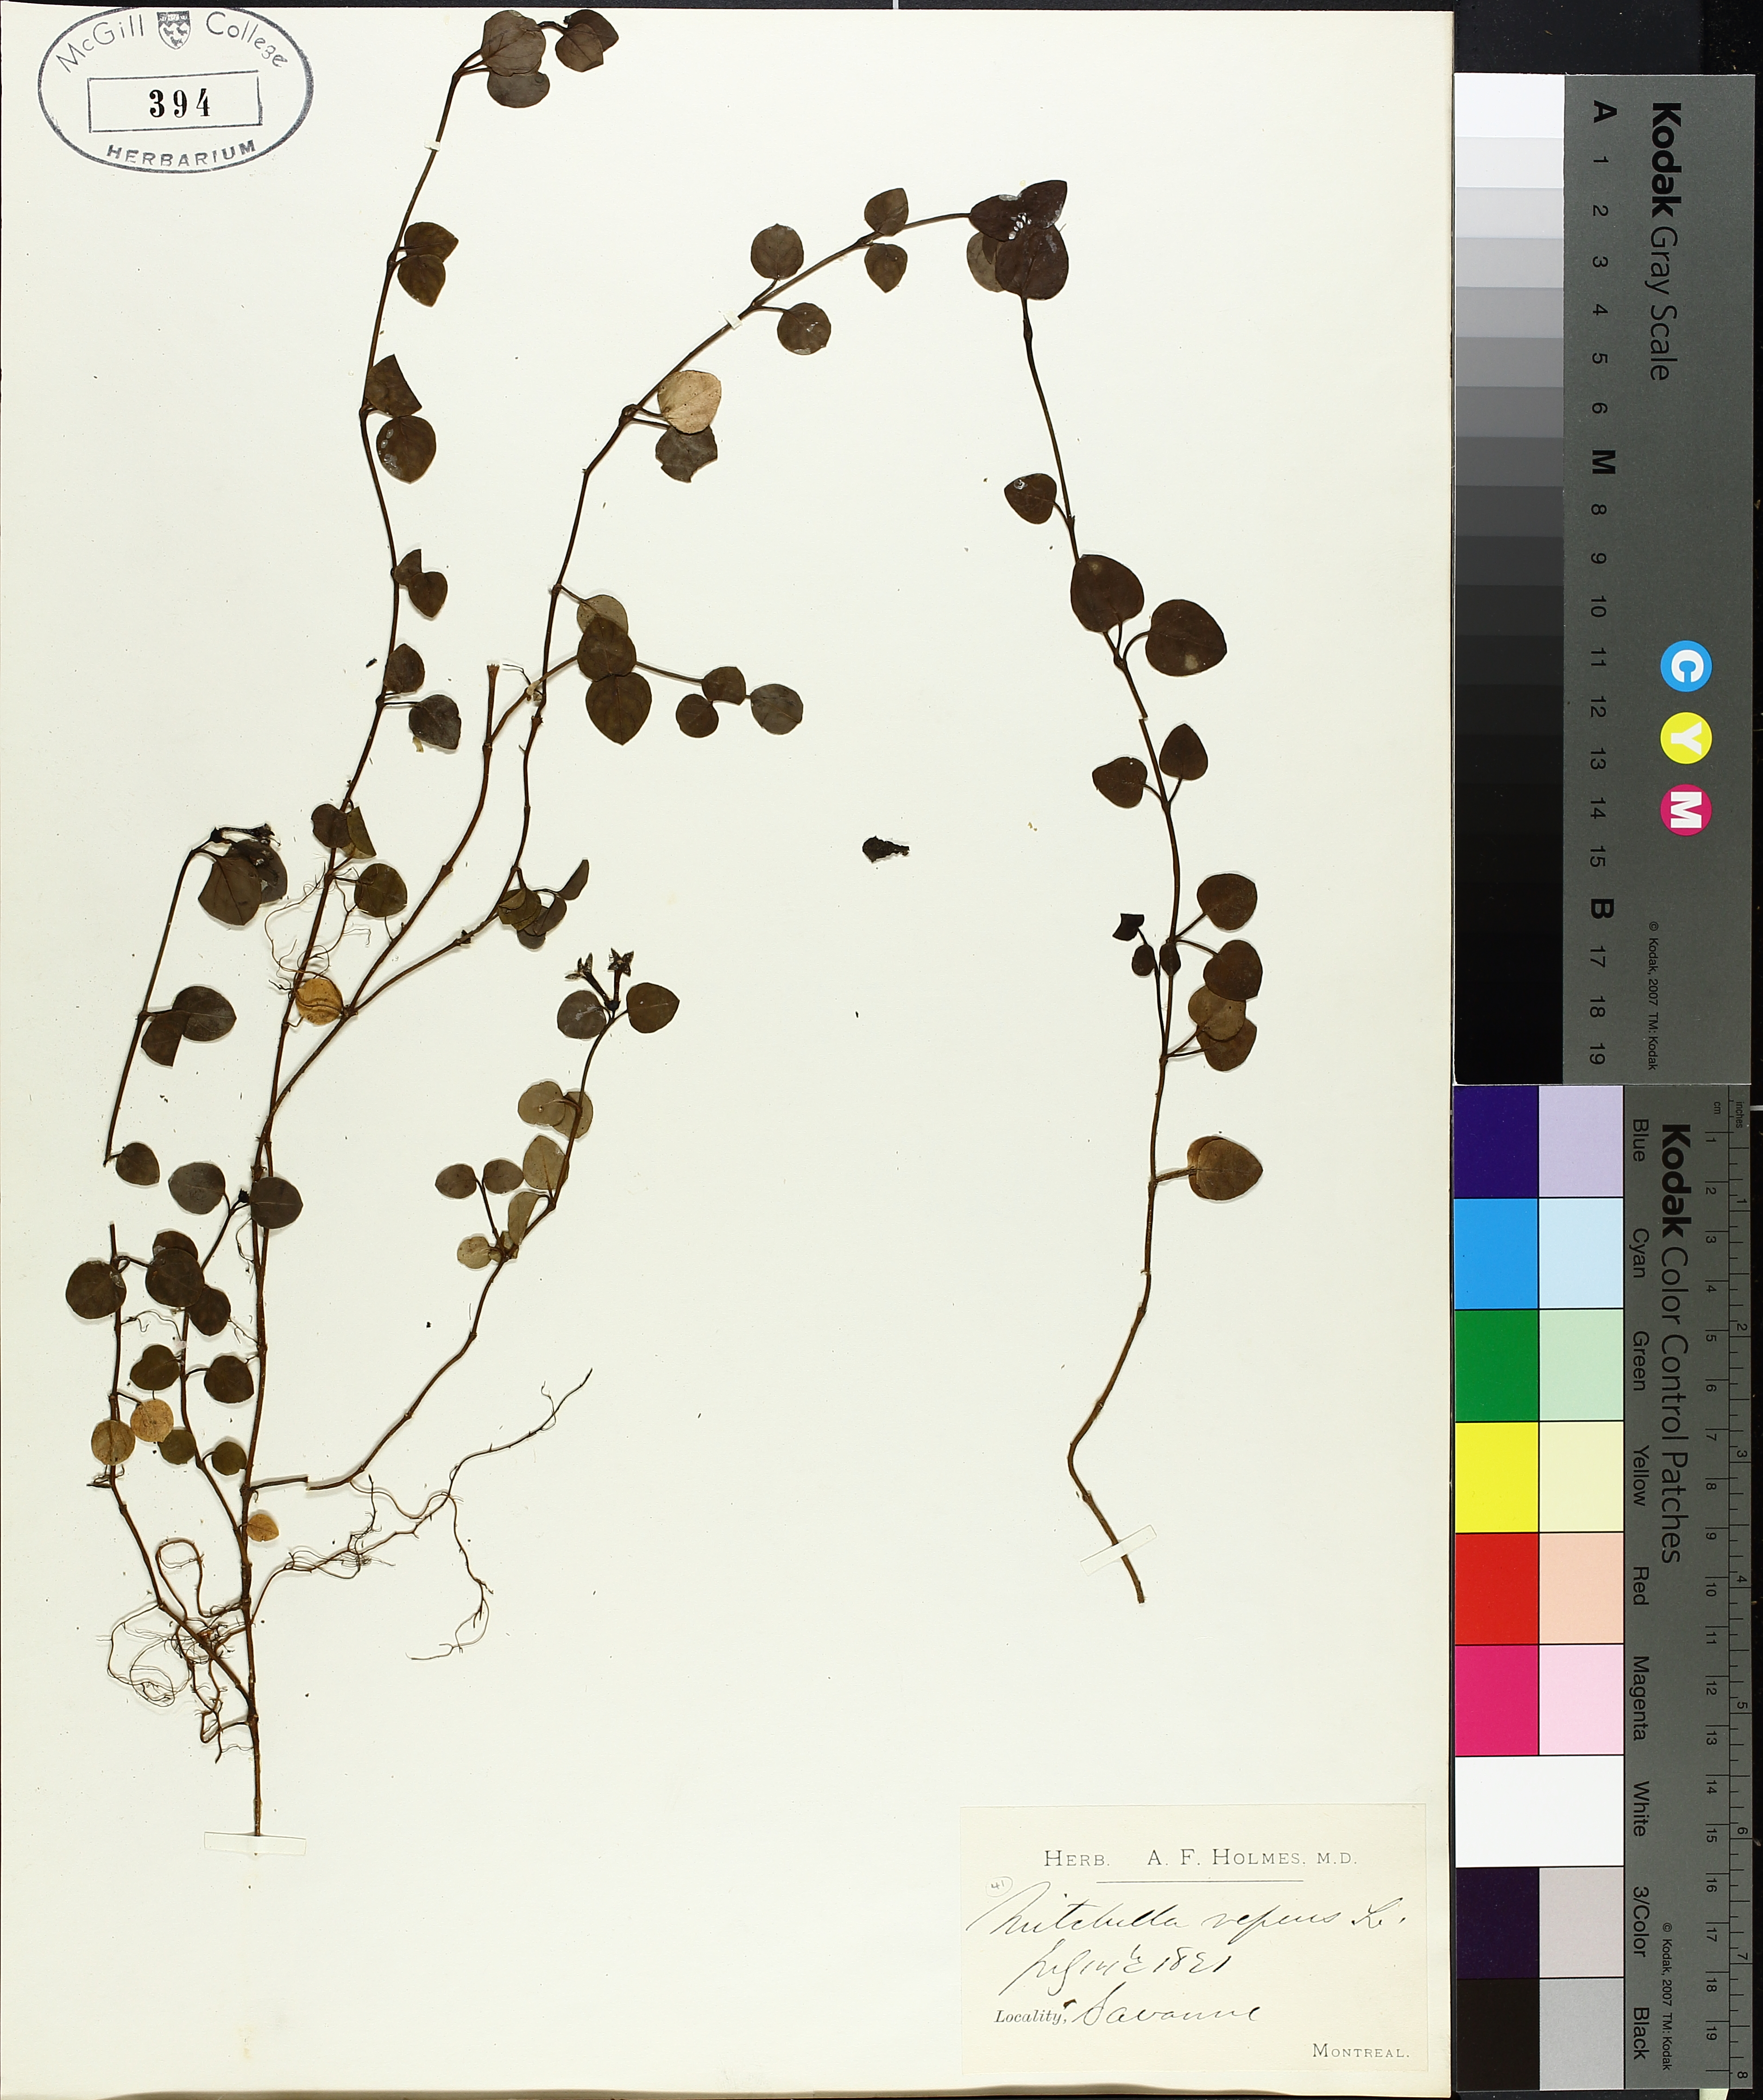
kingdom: Plantae
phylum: Tracheophyta
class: Magnoliopsida
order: Gentianales
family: Rubiaceae
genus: Mitchella
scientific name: Mitchella repens
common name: Partridge-berry
